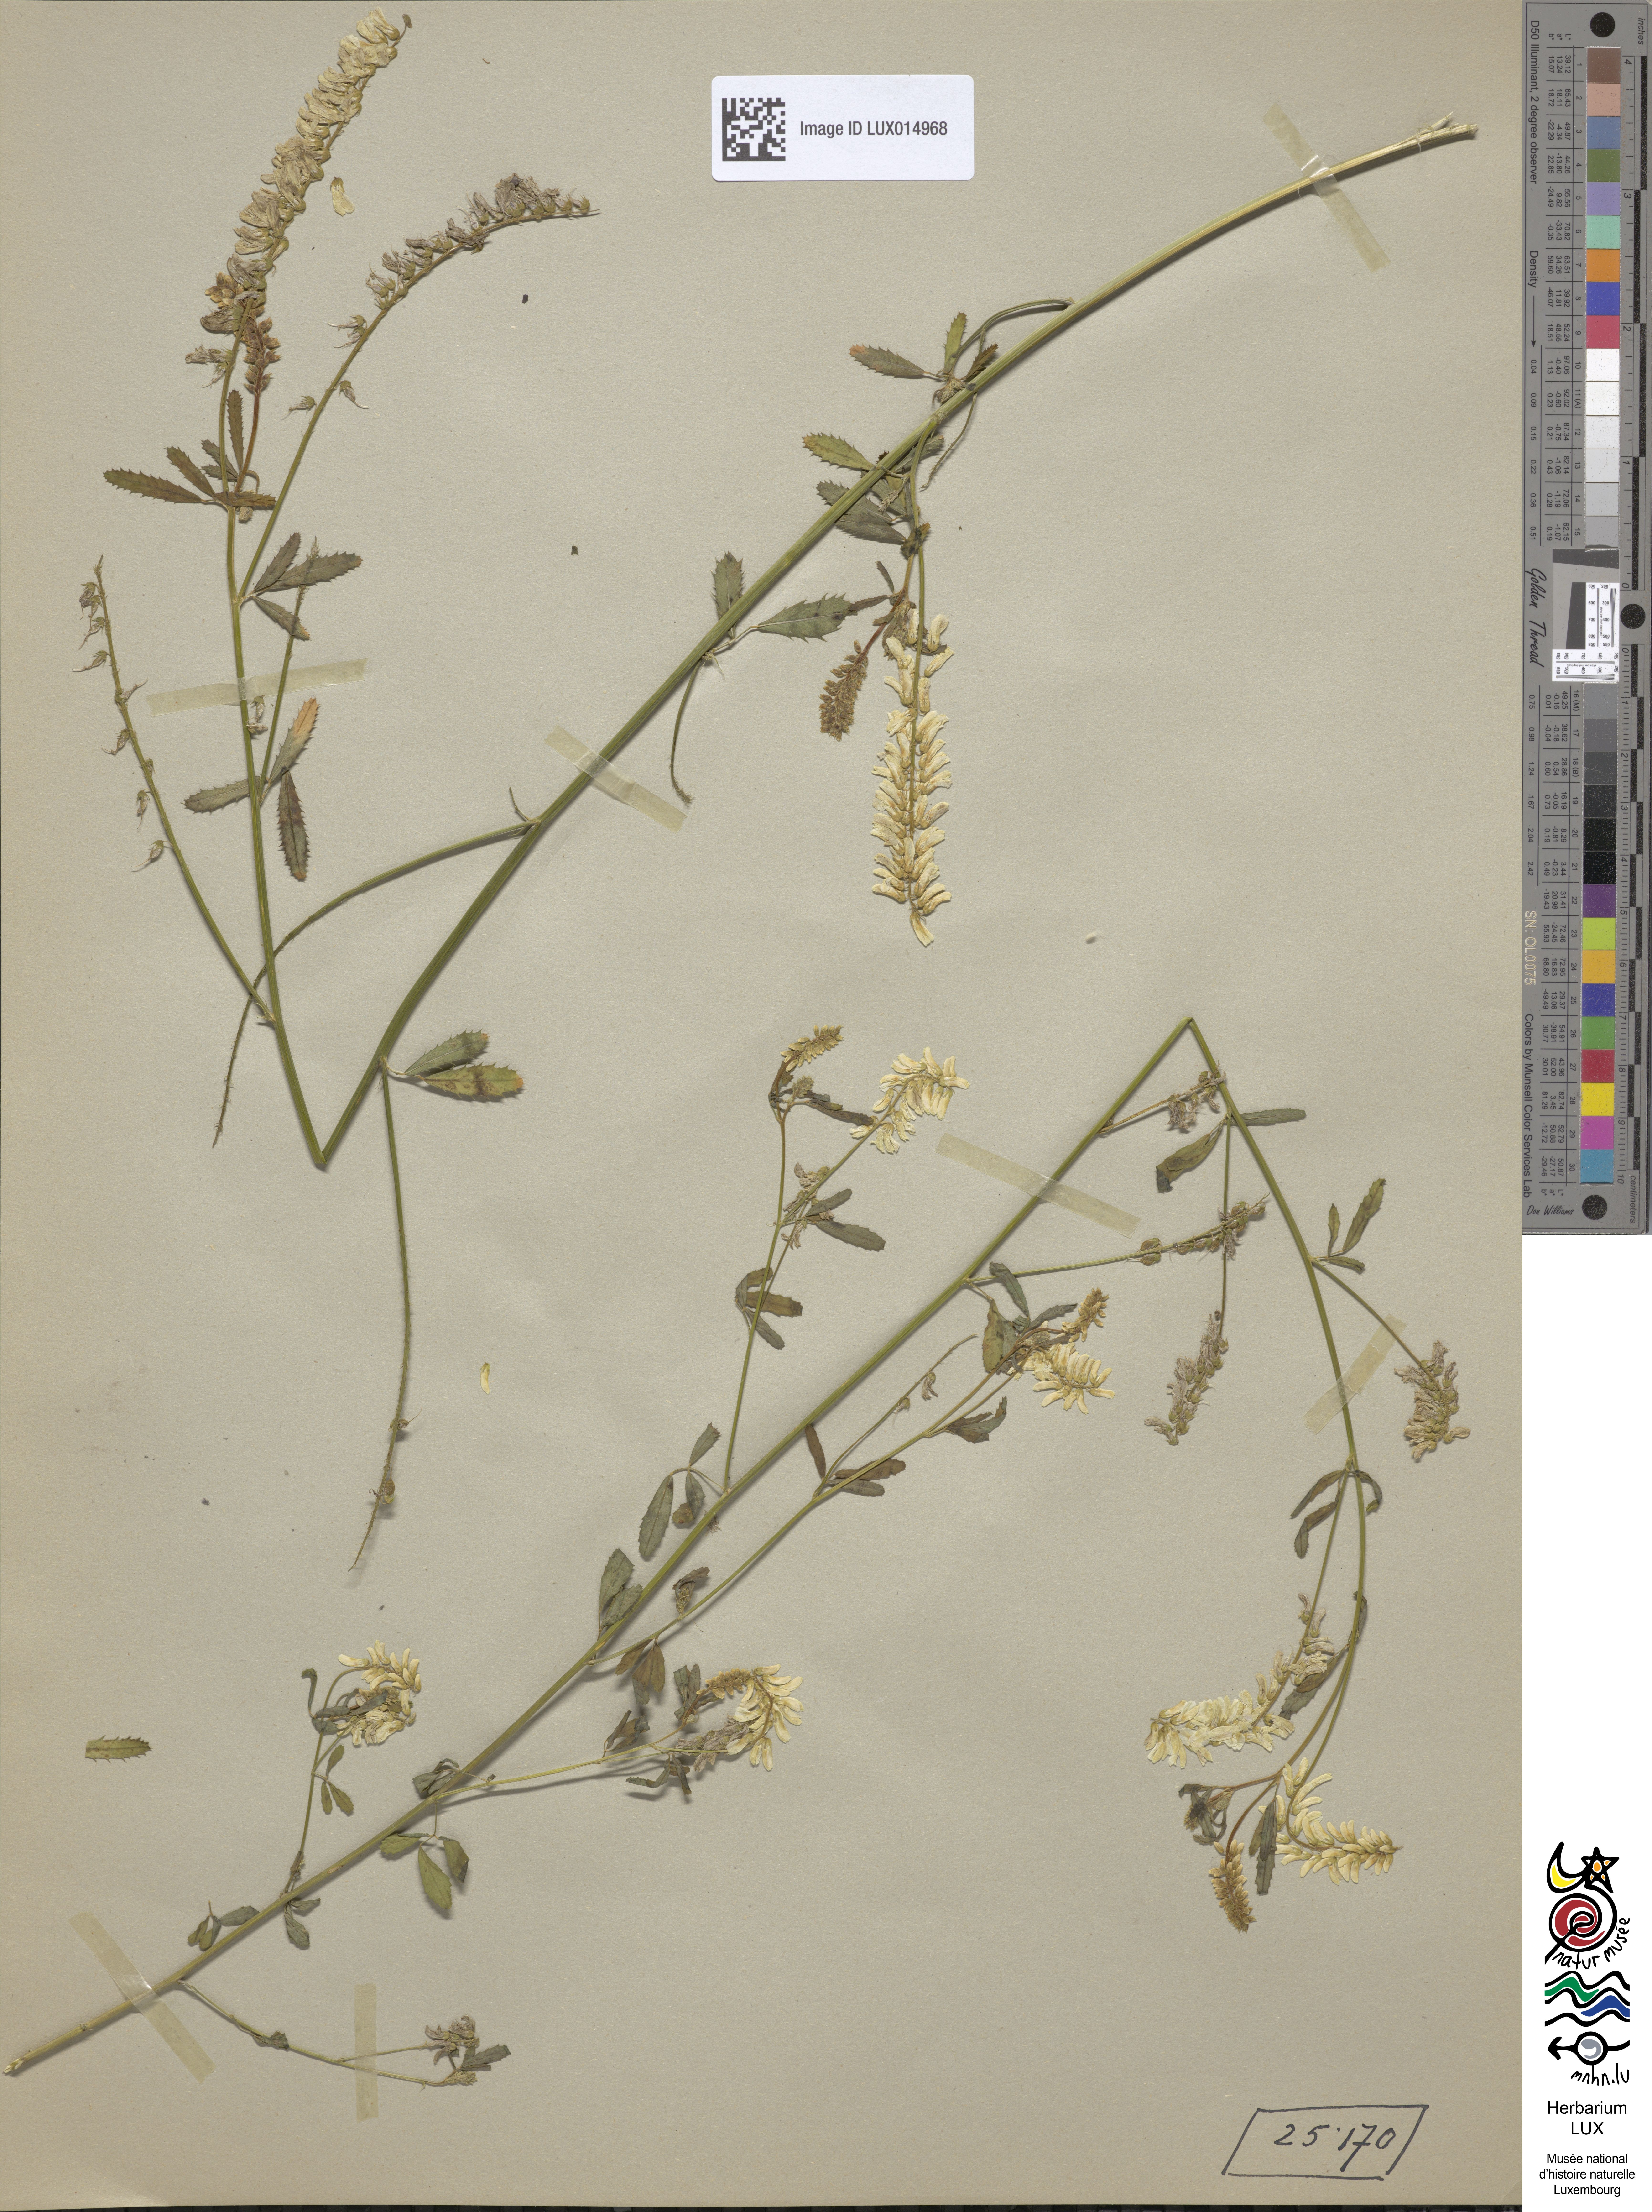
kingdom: Plantae
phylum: Tracheophyta
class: Magnoliopsida
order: Fabales
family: Fabaceae
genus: Melilotus
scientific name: Melilotus altissimus
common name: Tall melilot
